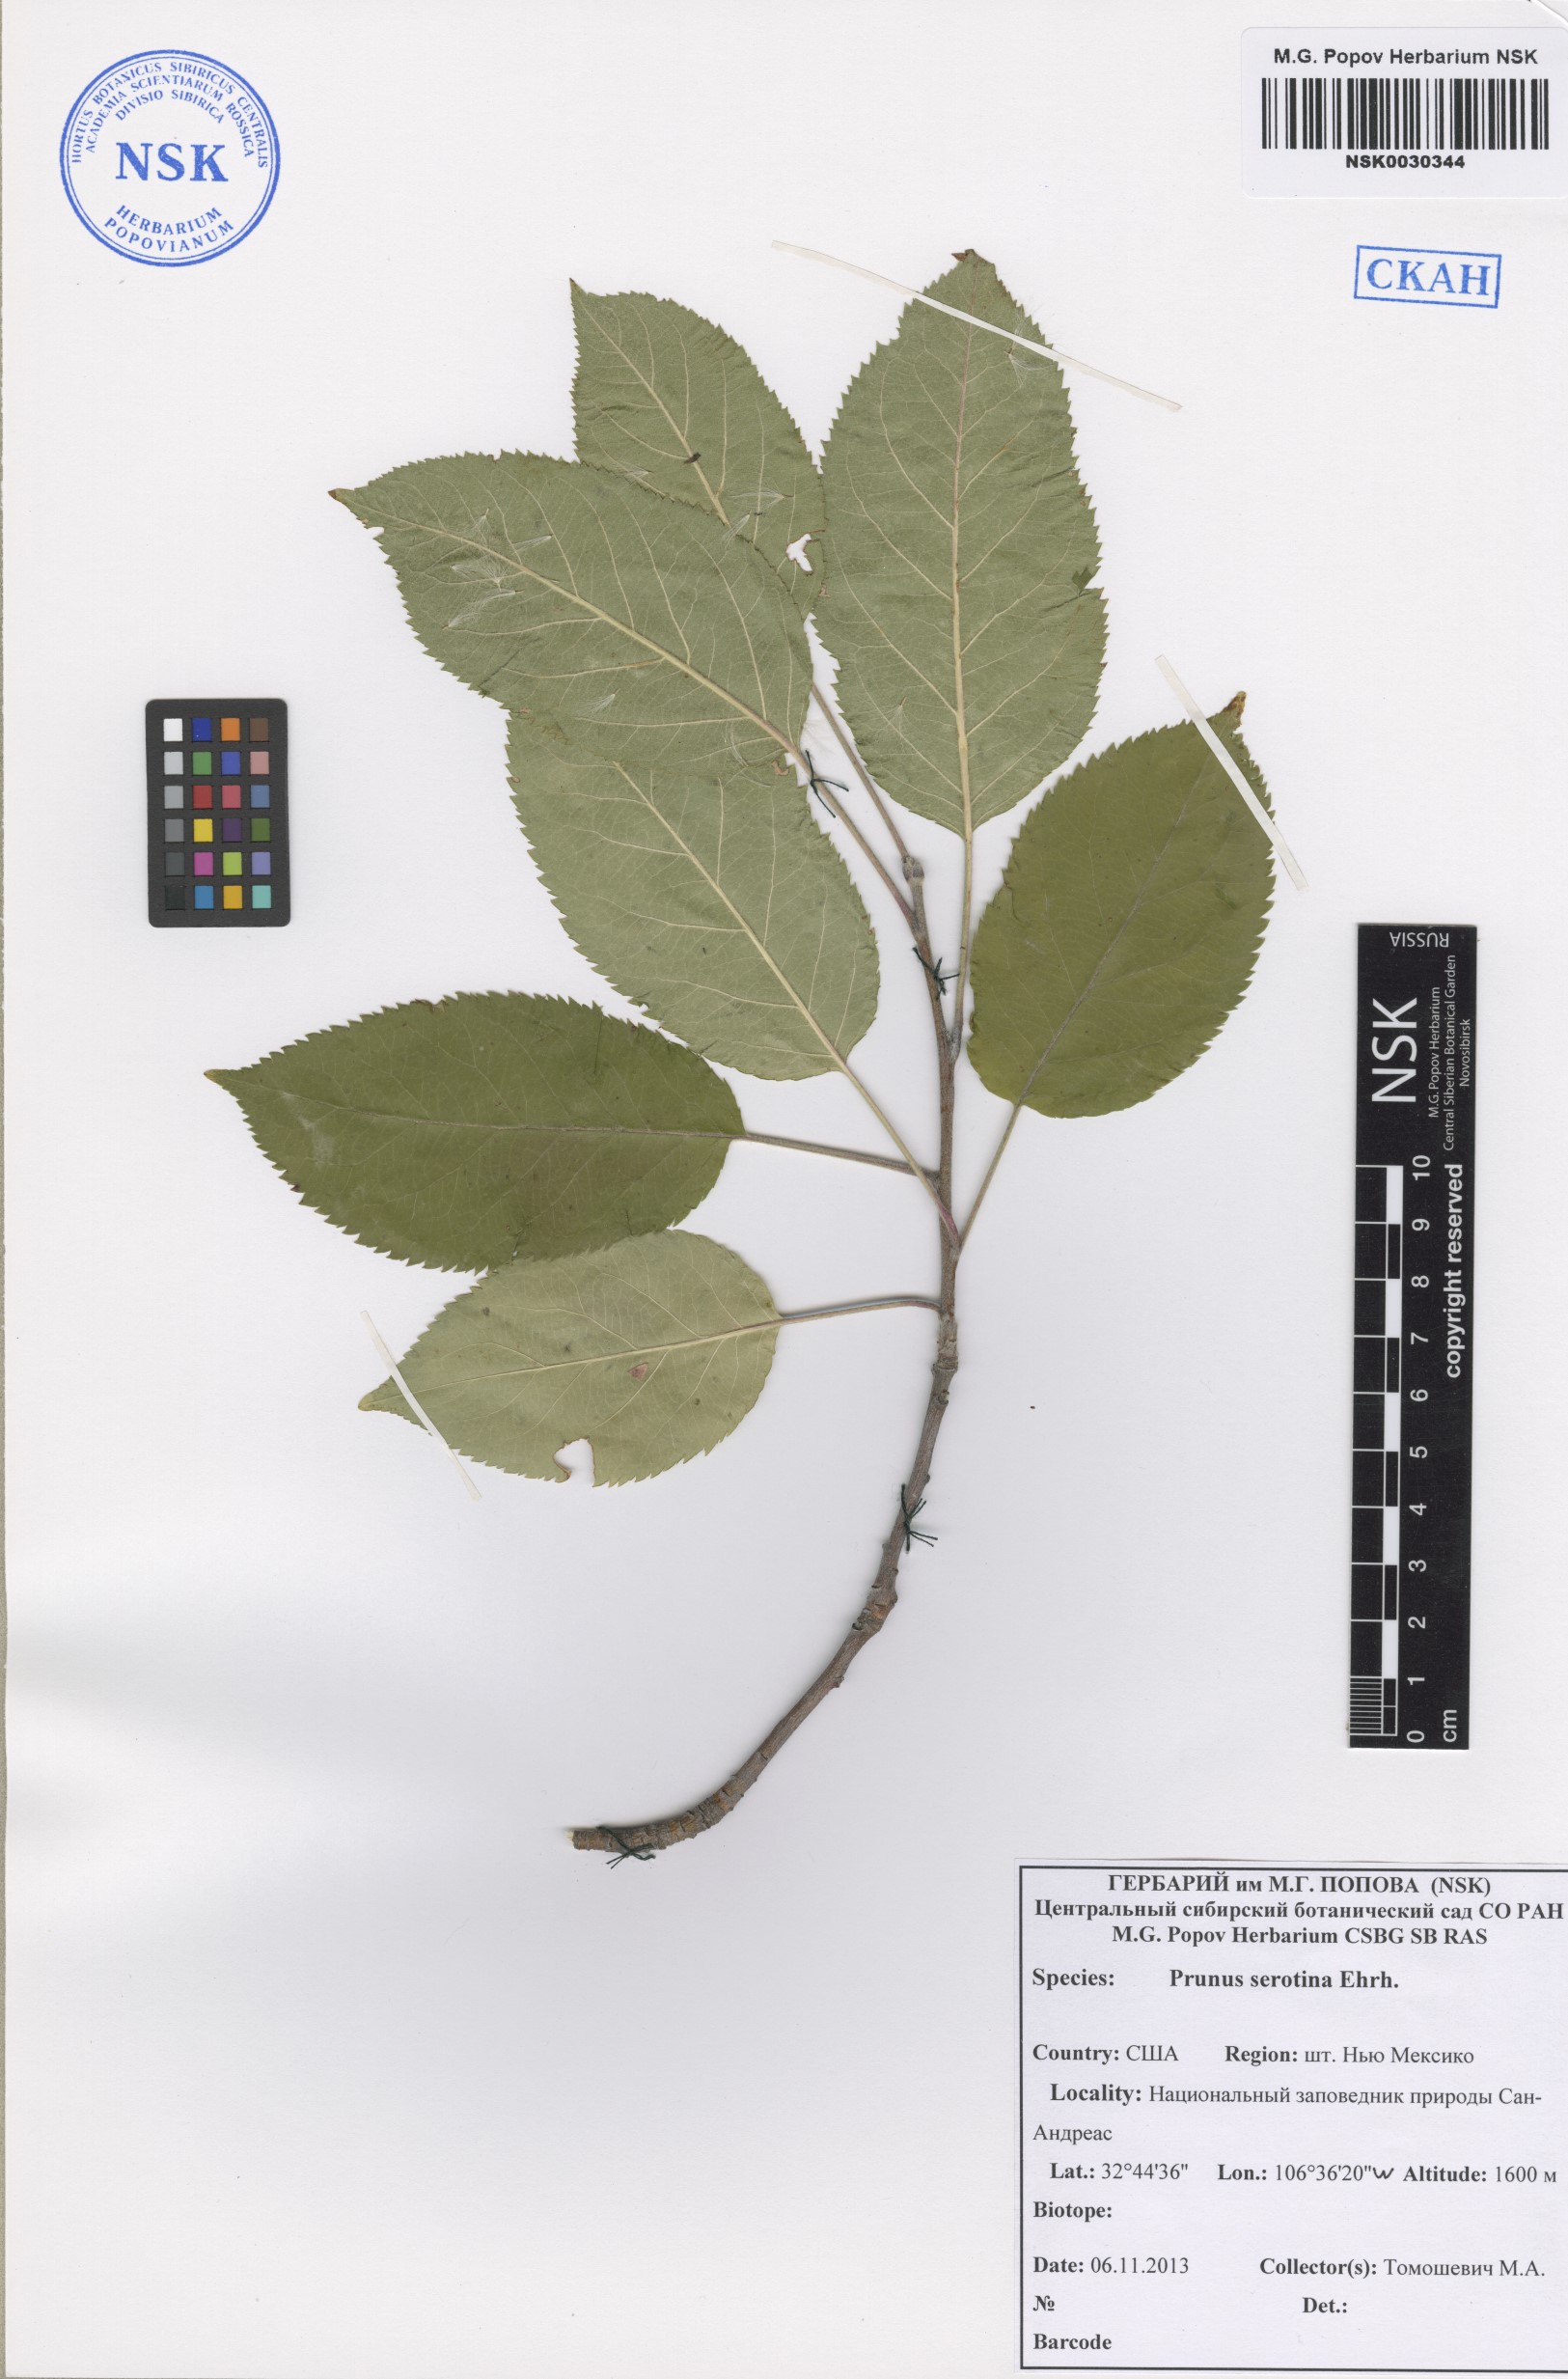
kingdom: Plantae
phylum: Tracheophyta
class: Magnoliopsida
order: Rosales
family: Rosaceae
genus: Prunus
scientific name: Prunus serotina
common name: Black cherry
